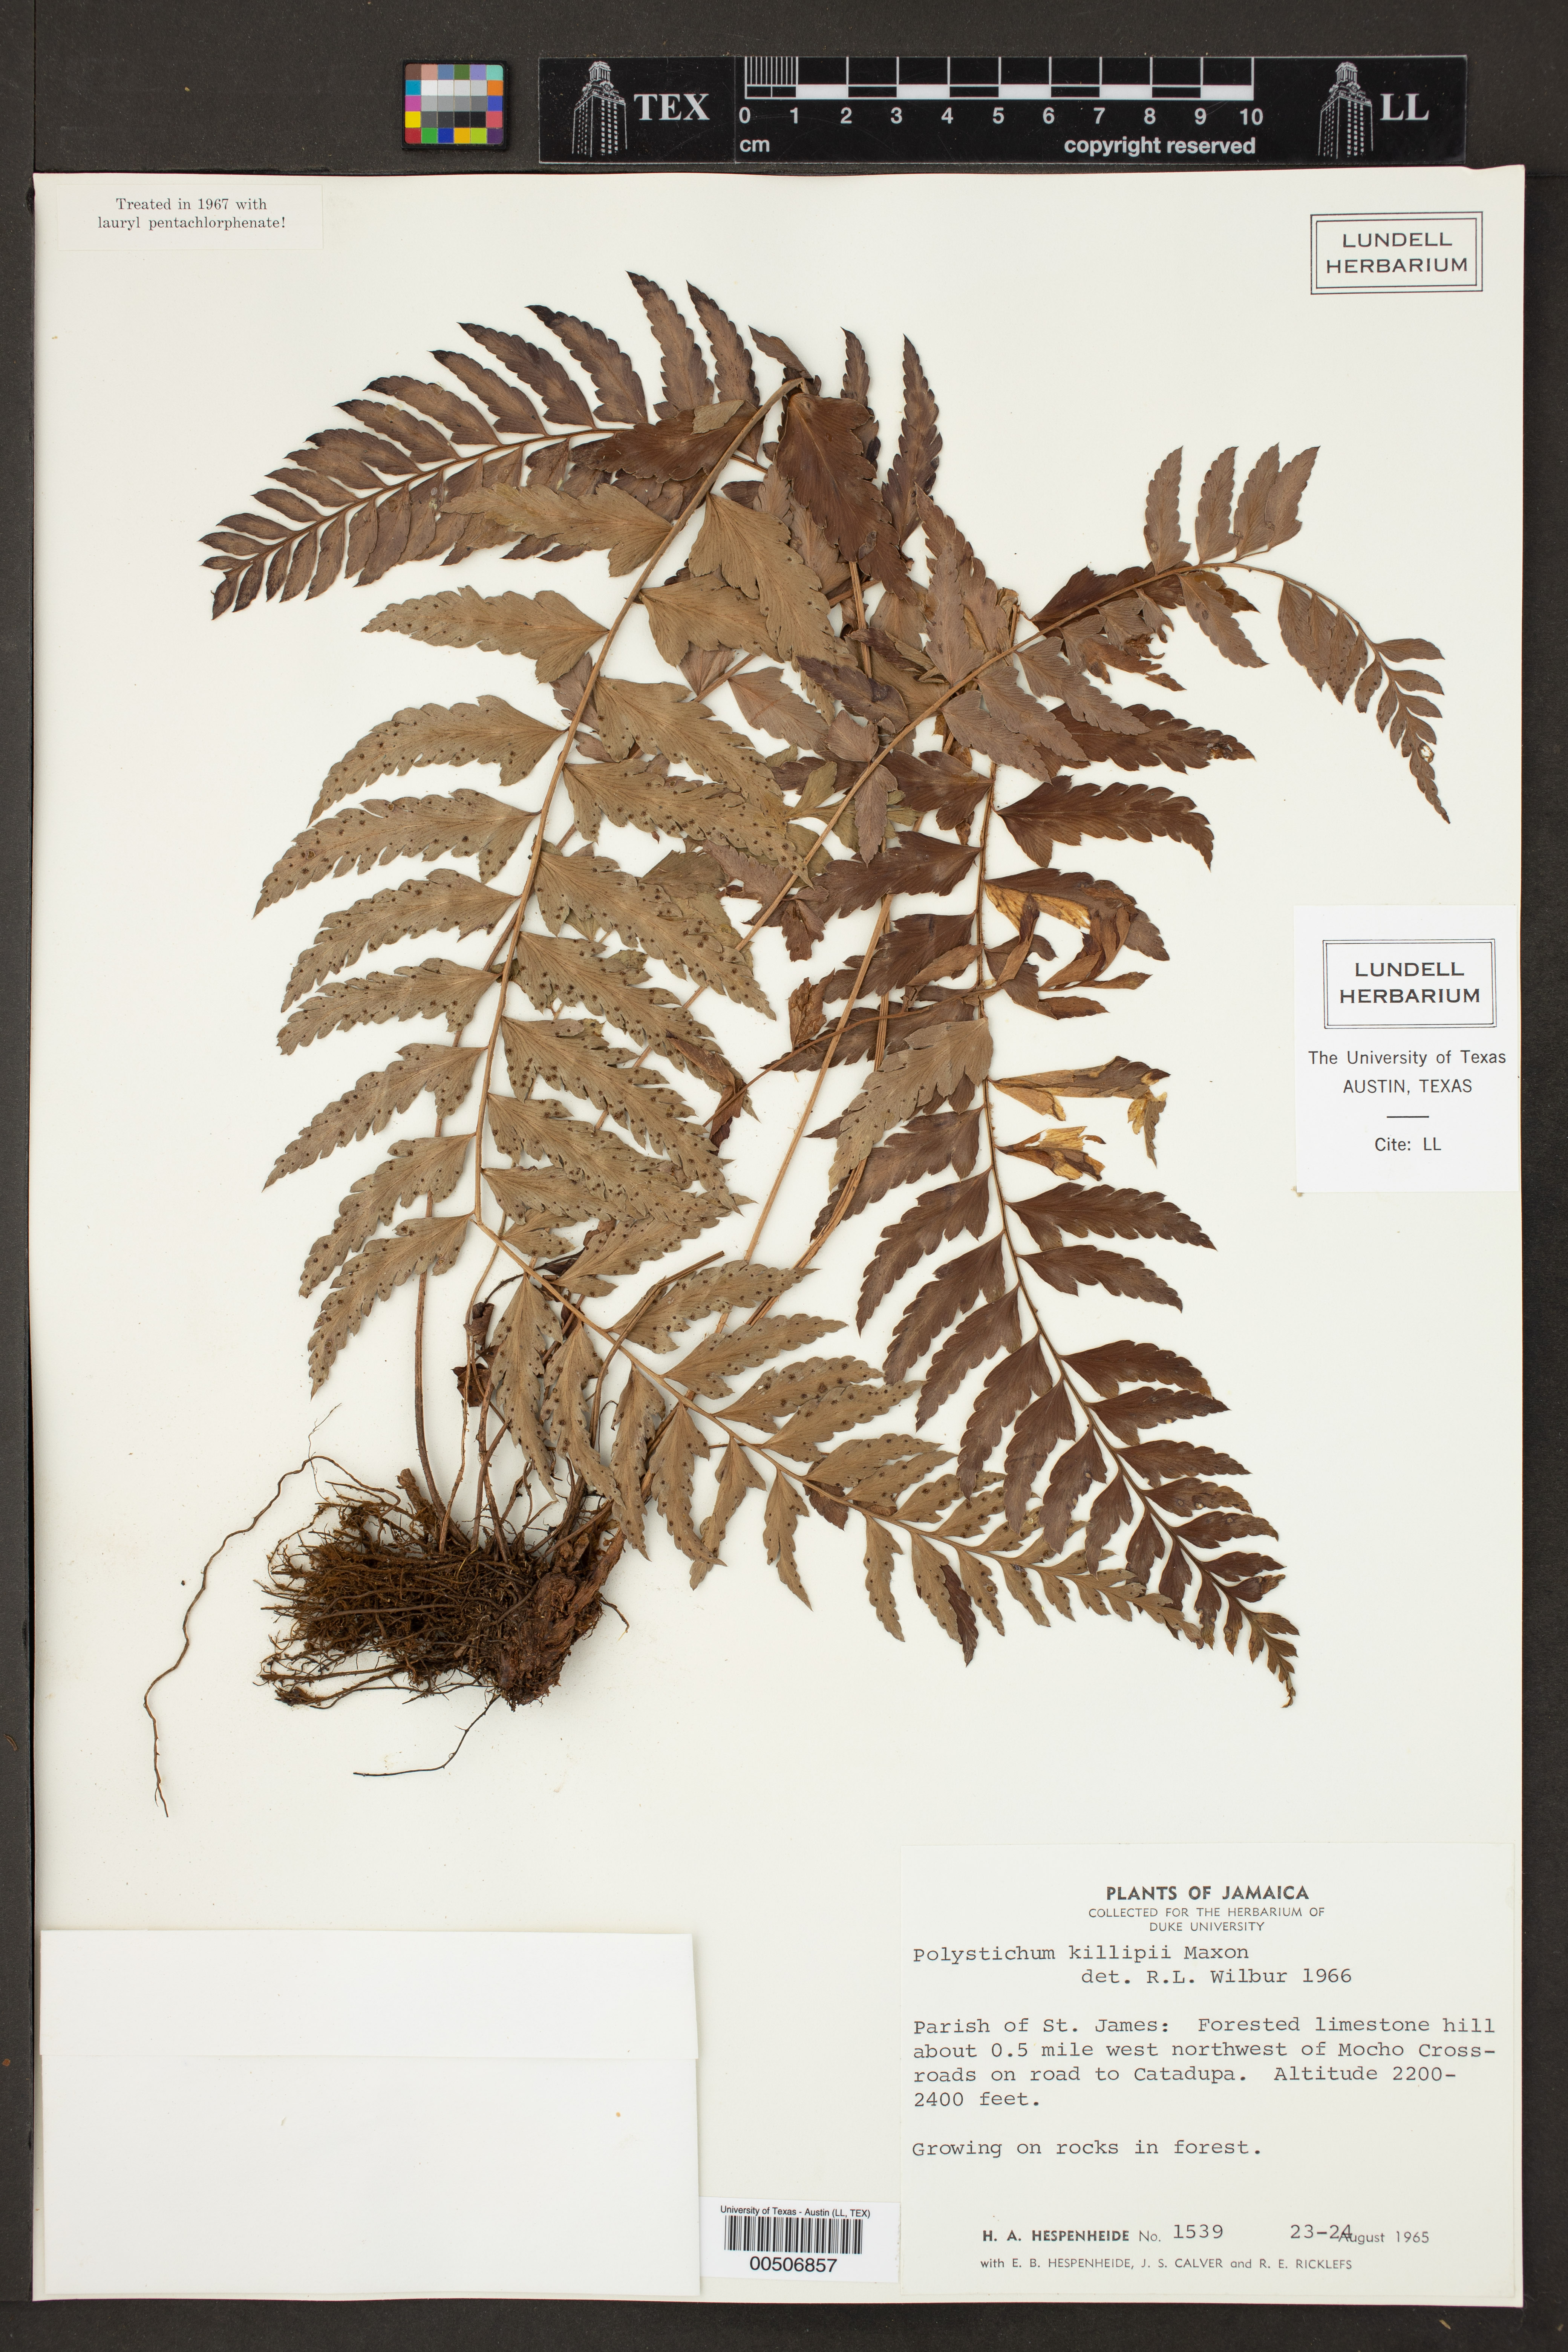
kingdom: Plantae
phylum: Tracheophyta
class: Polypodiopsida
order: Polypodiales
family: Dryopteridaceae
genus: Polystichum
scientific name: Polystichum trapezoides
